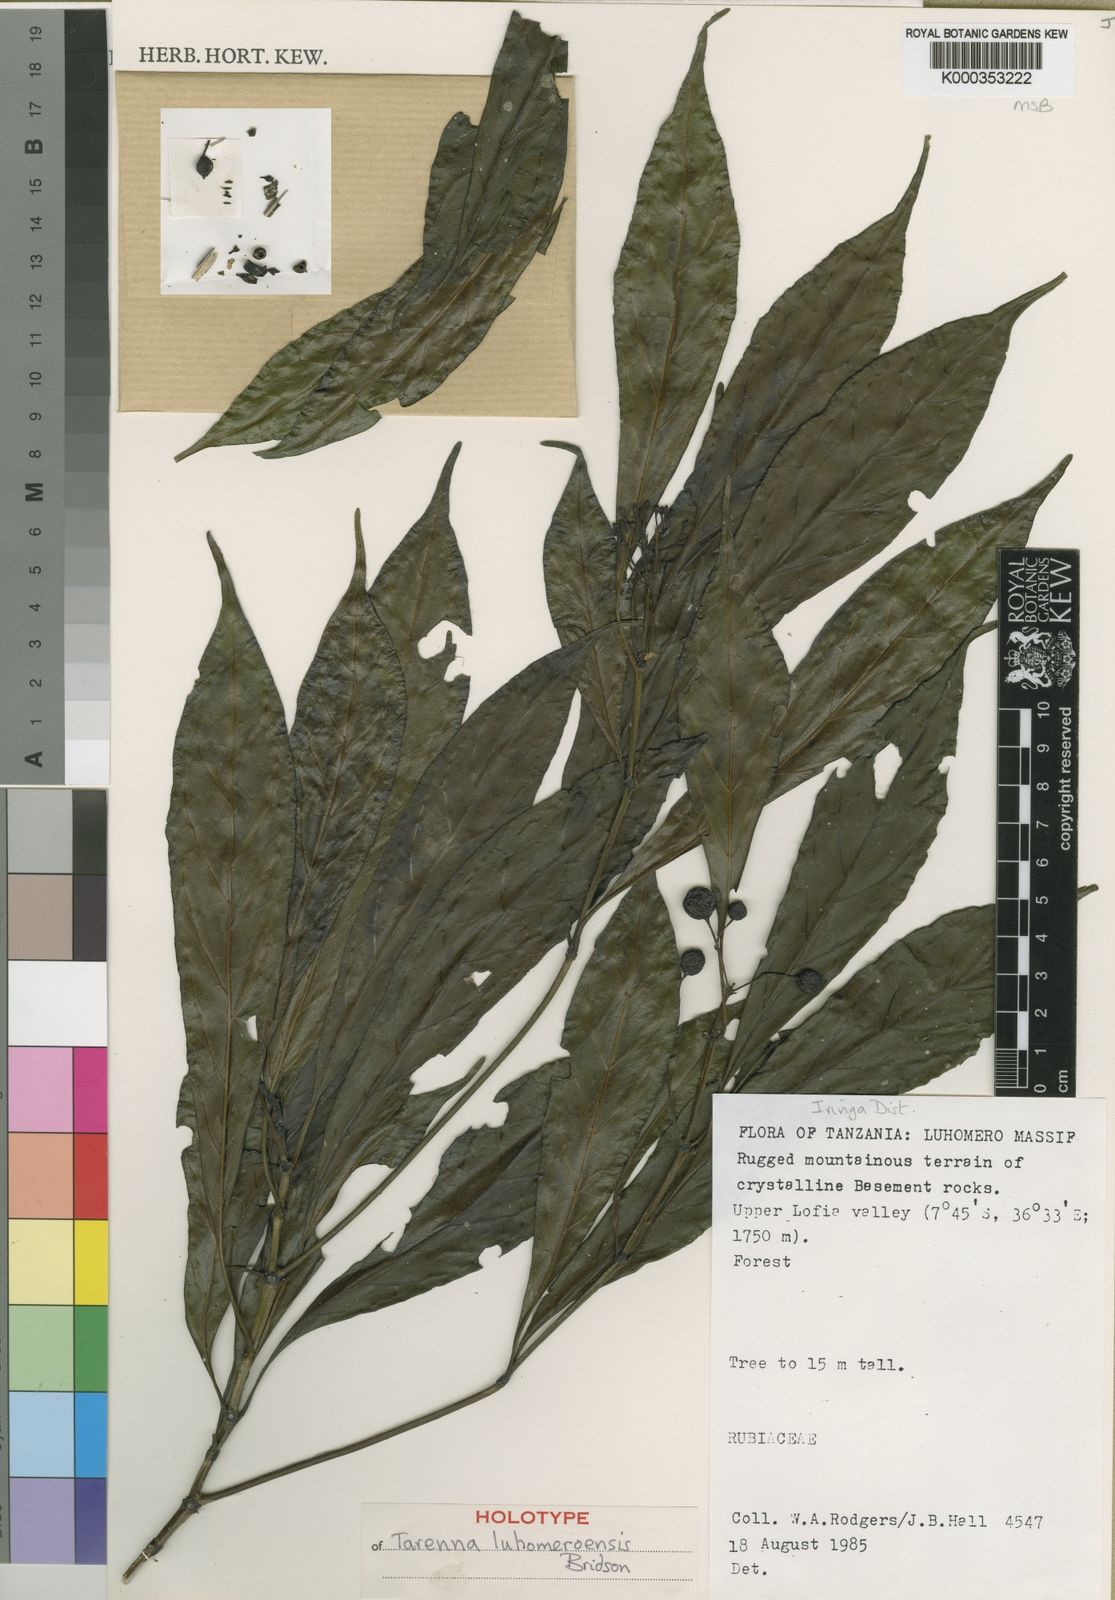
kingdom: Plantae
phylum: Tracheophyta
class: Magnoliopsida
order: Gentianales
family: Rubiaceae
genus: Tarenna
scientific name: Tarenna luhomeroensis
